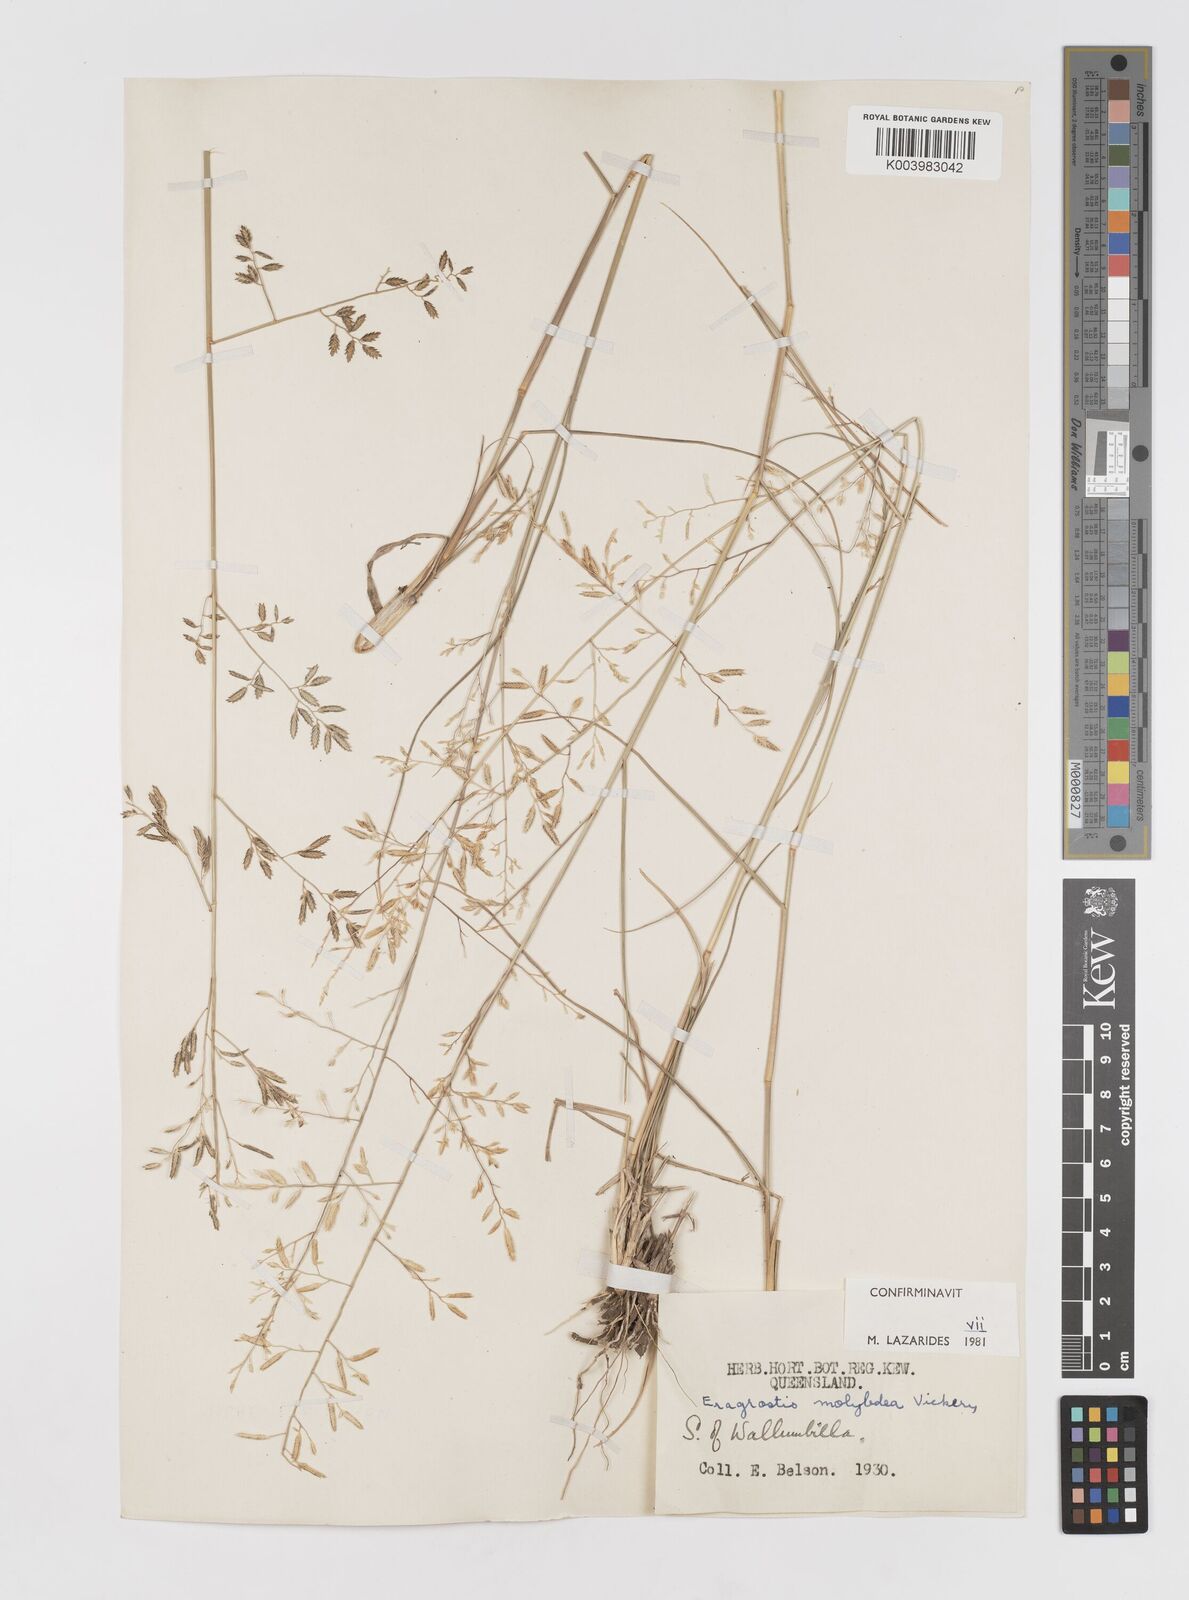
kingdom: Plantae
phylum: Tracheophyta
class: Liliopsida
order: Poales
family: Poaceae
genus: Eragrostis
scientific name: Eragrostis leptostachya
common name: Australian lovegrass
